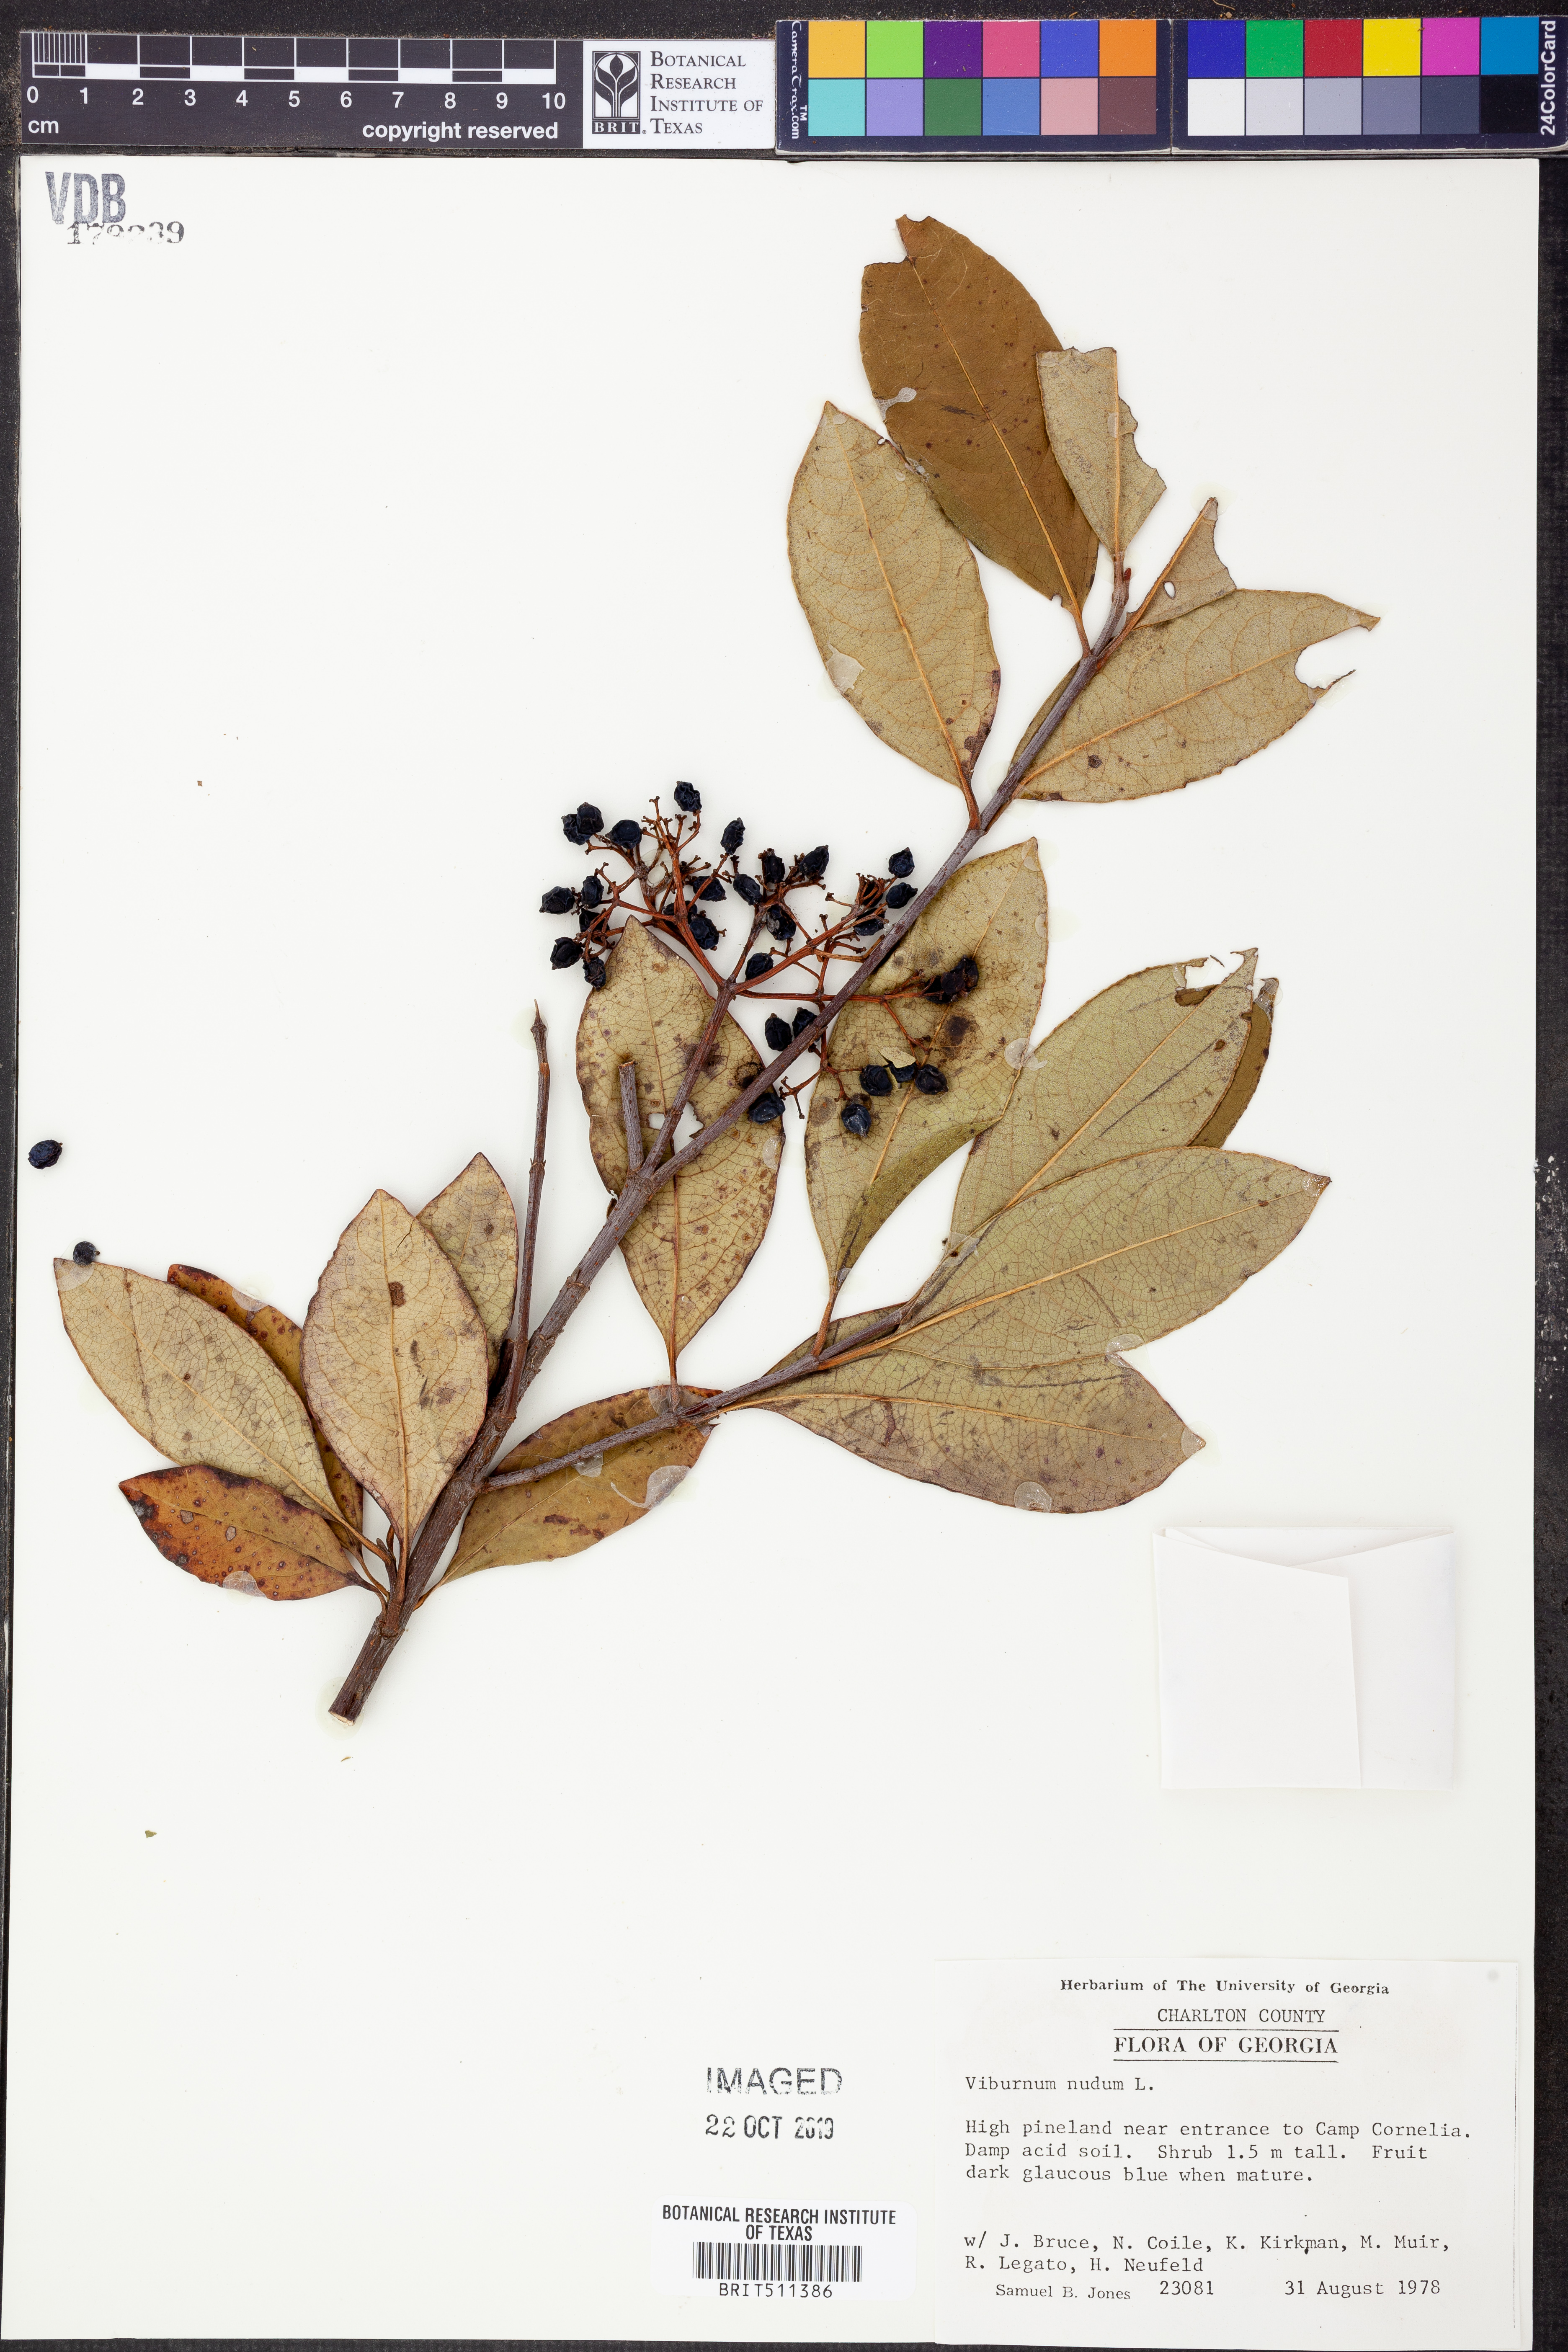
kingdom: Plantae
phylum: Tracheophyta
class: Magnoliopsida
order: Dipsacales
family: Viburnaceae
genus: Viburnum
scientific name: Viburnum nudum
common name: Possum haw
